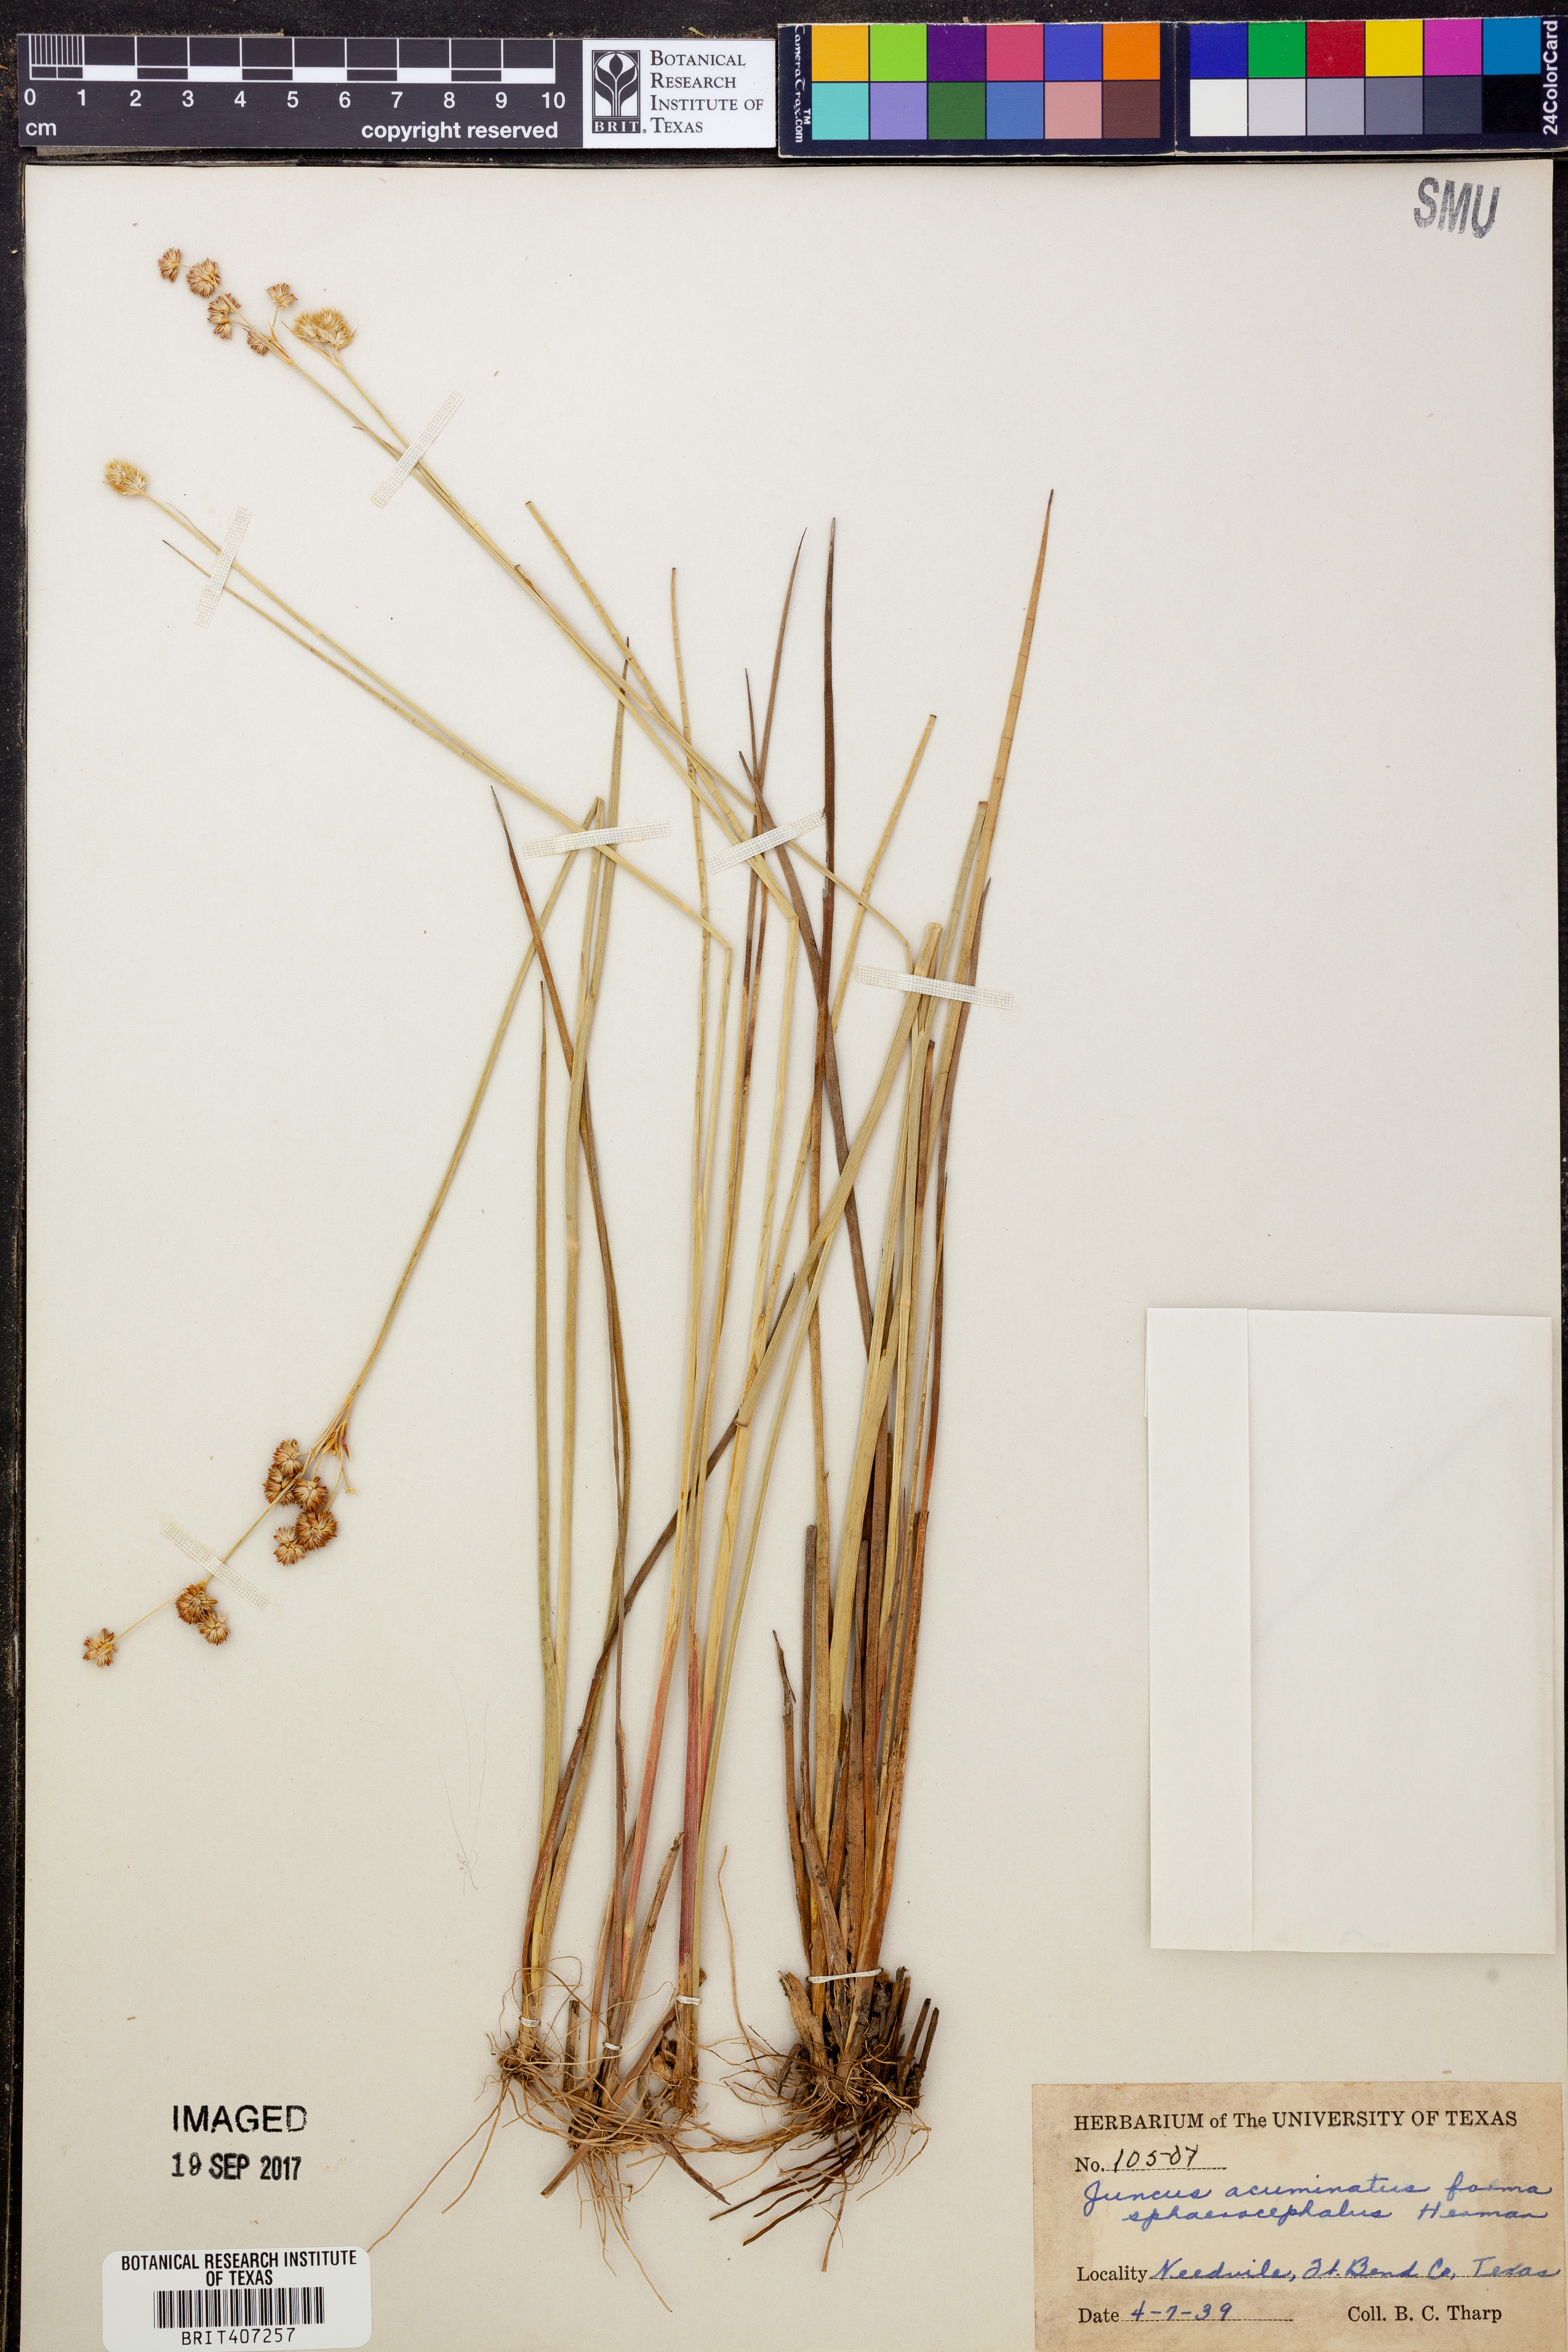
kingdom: Plantae
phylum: Tracheophyta
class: Liliopsida
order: Poales
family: Juncaceae
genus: Juncus
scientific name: Juncus acuminatus
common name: Knotty-leaved rush
